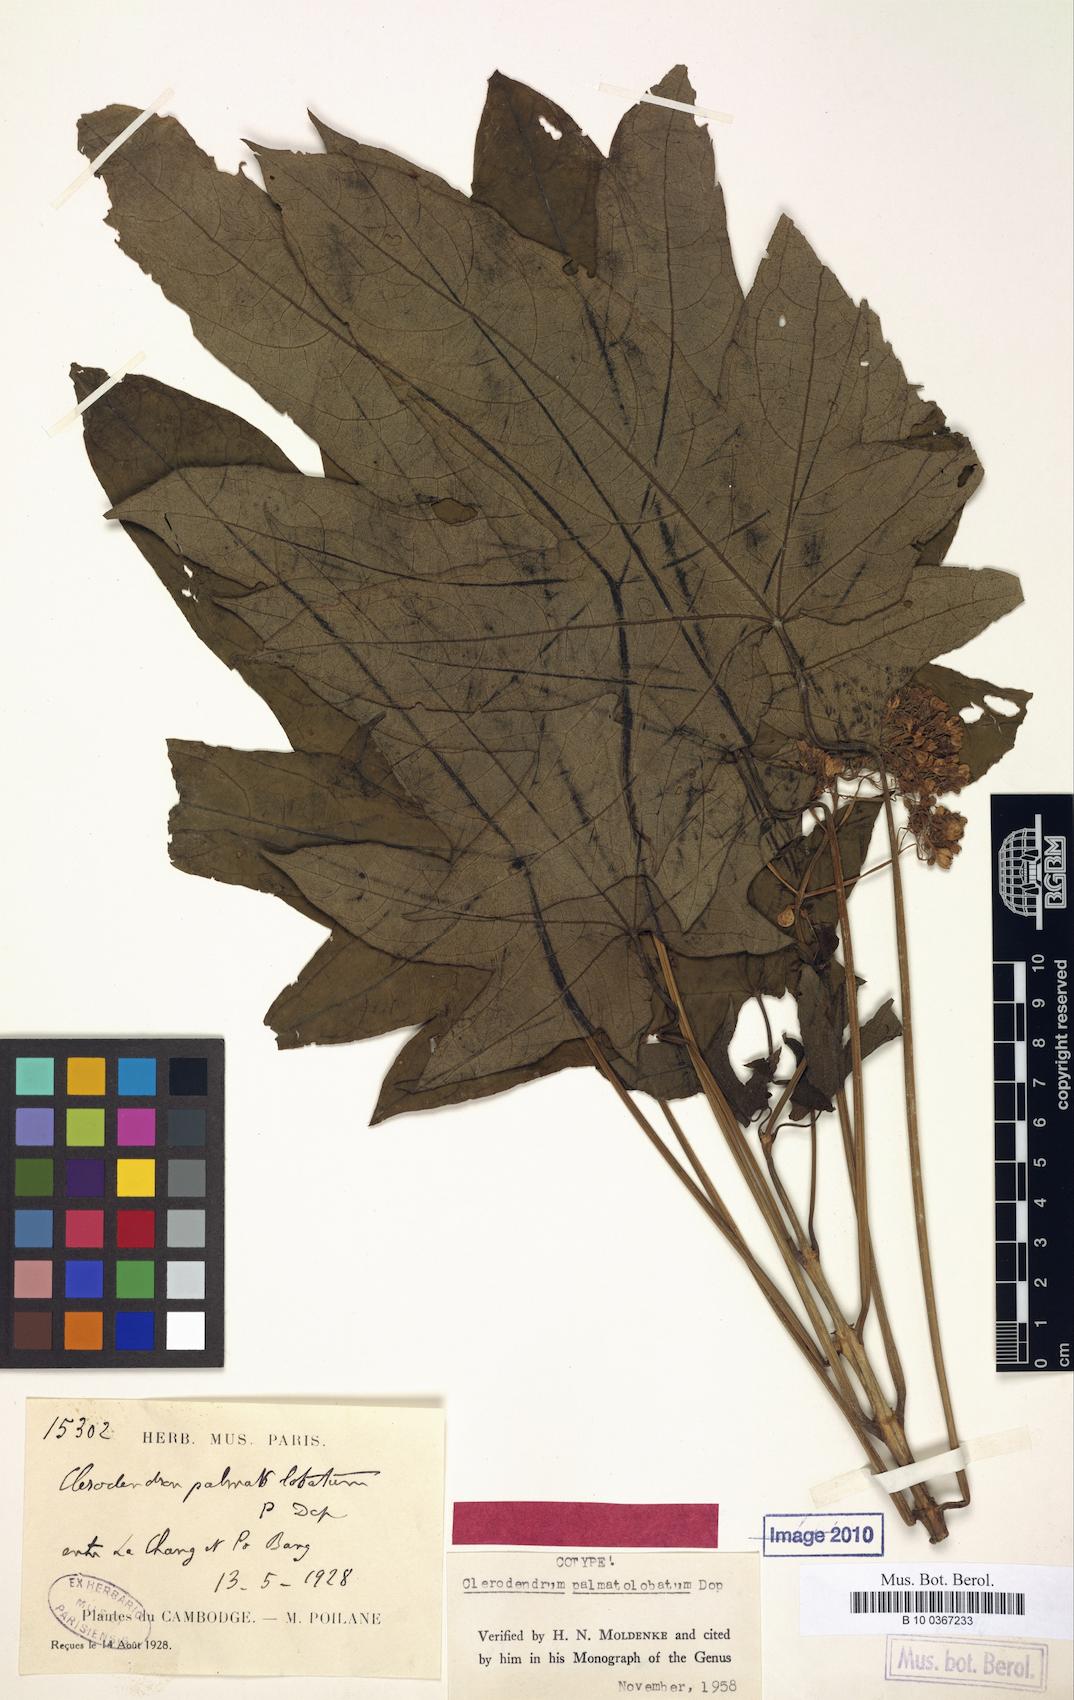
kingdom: Plantae
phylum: Tracheophyta
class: Magnoliopsida
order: Lamiales
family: Lamiaceae
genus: Clerodendrum
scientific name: Clerodendrum palmatolobatum
